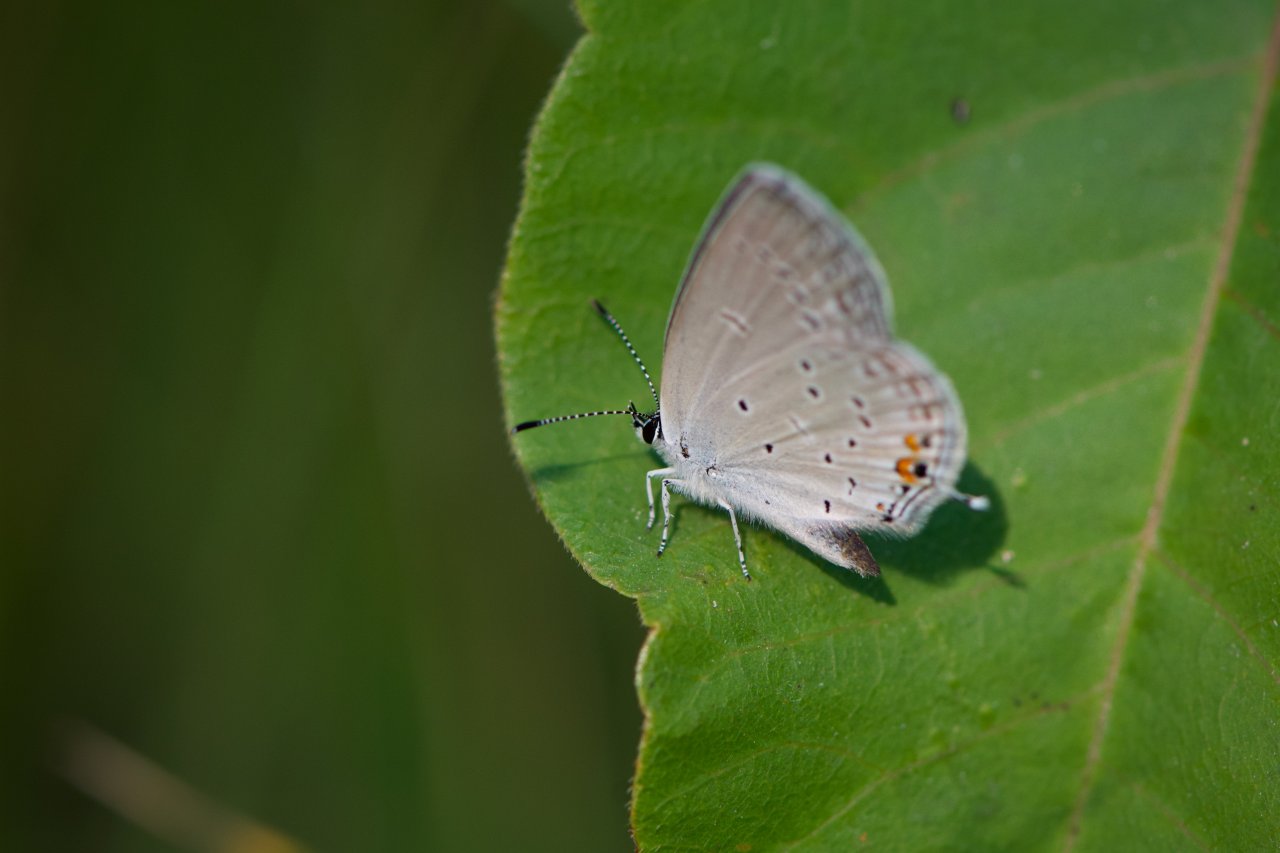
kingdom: Animalia
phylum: Arthropoda
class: Insecta
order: Lepidoptera
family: Lycaenidae
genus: Elkalyce
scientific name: Elkalyce comyntas
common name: Eastern Tailed-Blue
